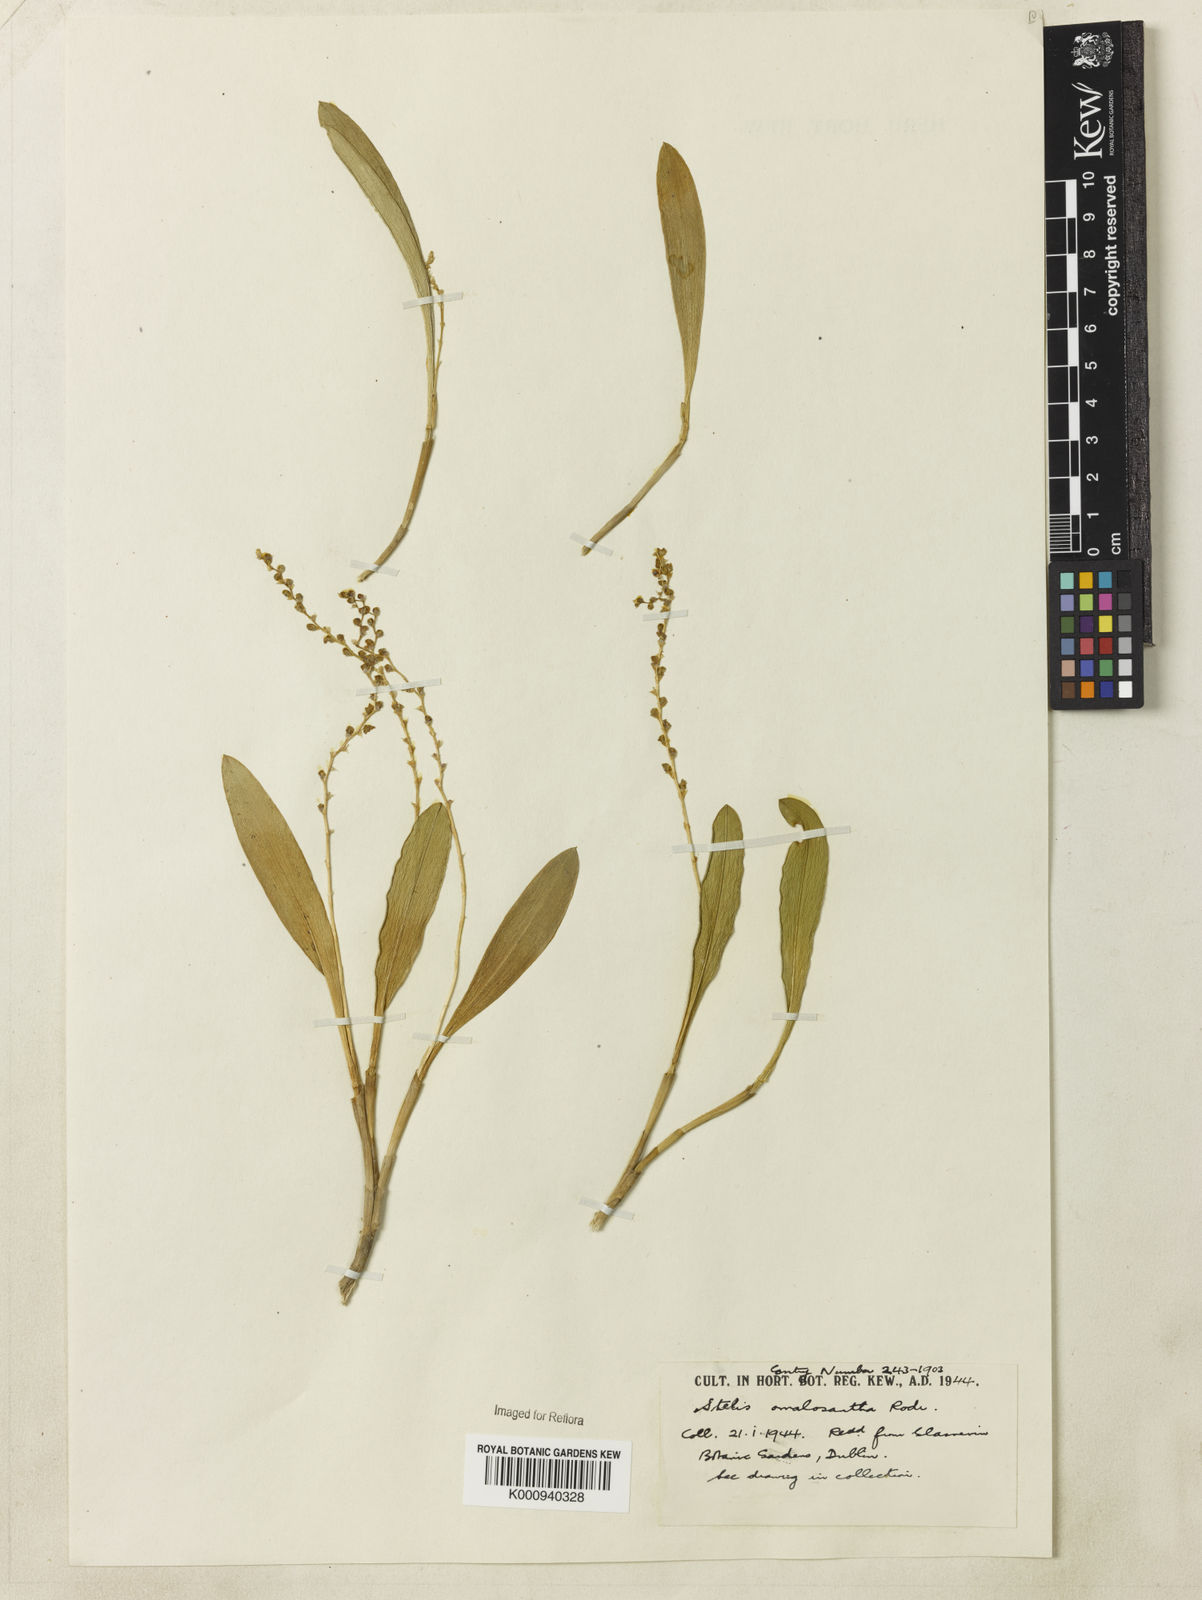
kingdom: Plantae
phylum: Tracheophyta
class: Liliopsida
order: Asparagales
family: Orchidaceae
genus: Stelis
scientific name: Stelis pauciflora
